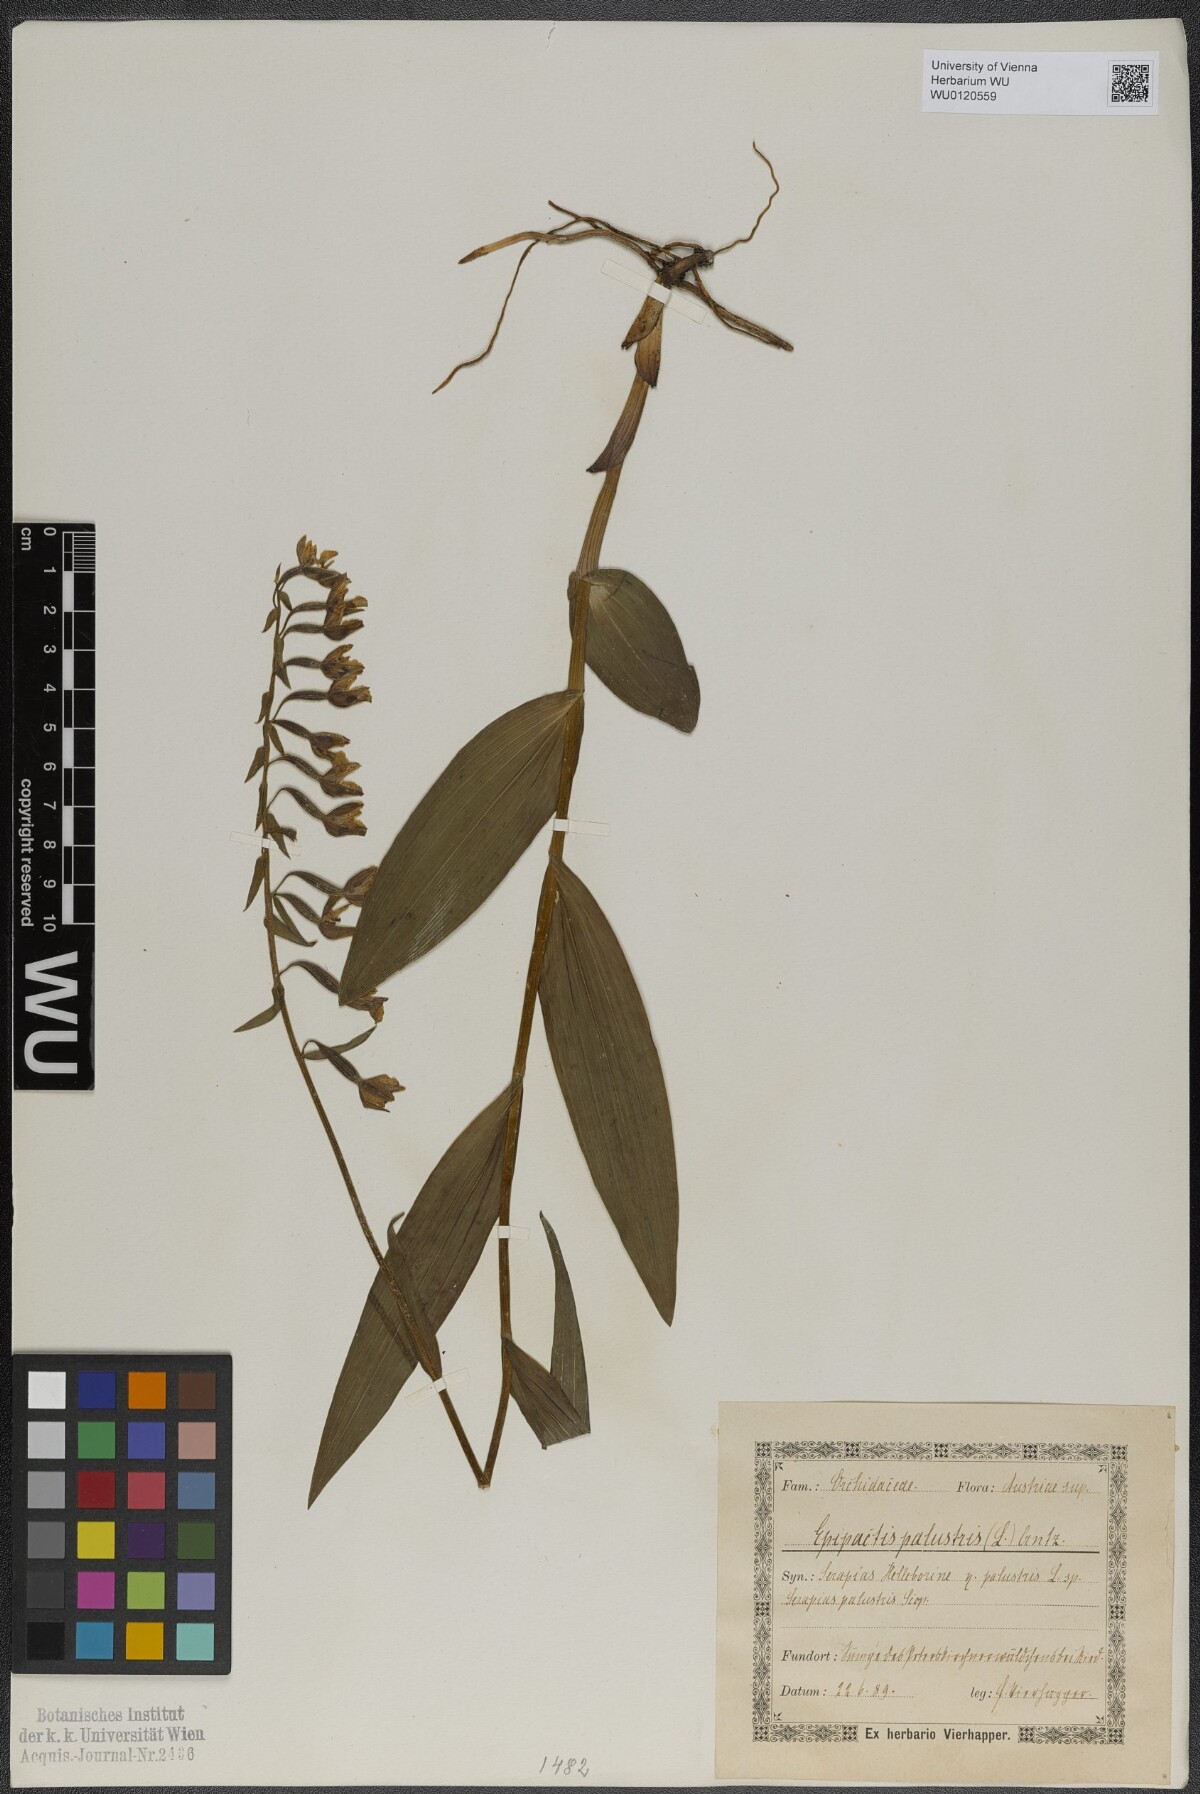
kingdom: Plantae
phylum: Tracheophyta
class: Liliopsida
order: Asparagales
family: Orchidaceae
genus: Epipactis
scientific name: Epipactis palustris
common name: Marsh helleborine
